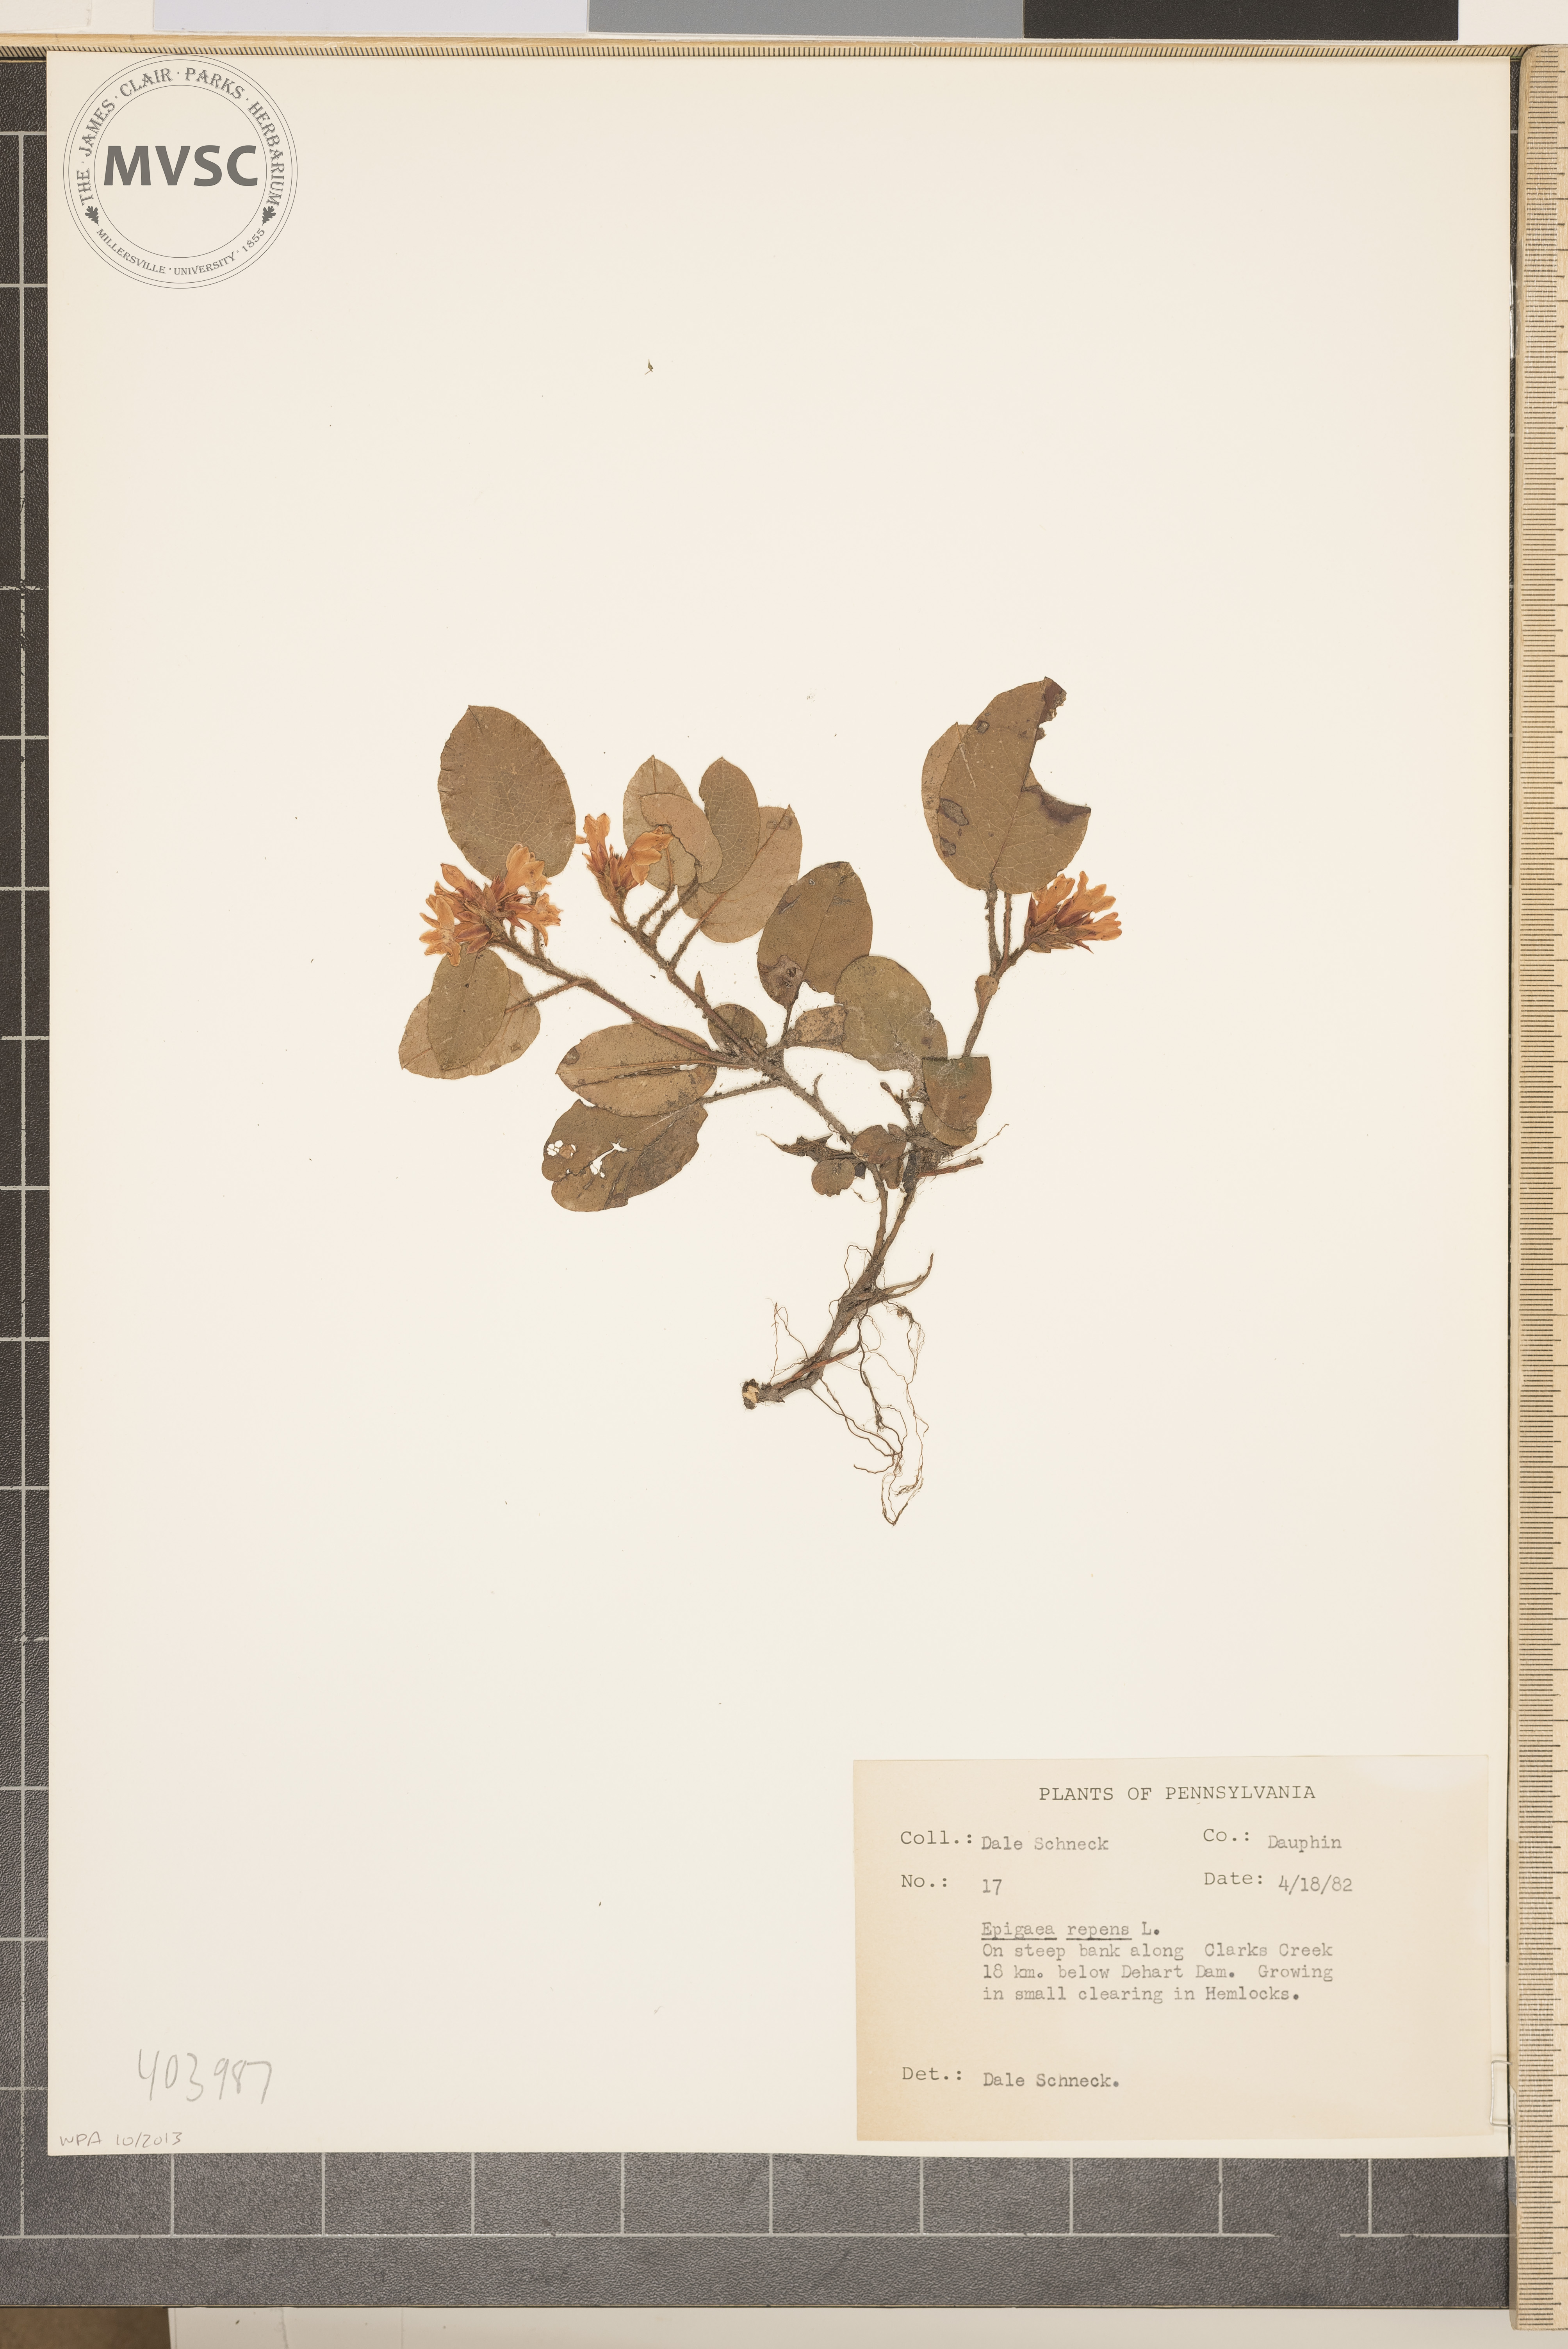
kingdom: Plantae
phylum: Tracheophyta
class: Magnoliopsida
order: Ericales
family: Ericaceae
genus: Epigaea
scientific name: Epigaea repens
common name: Gravelroot
